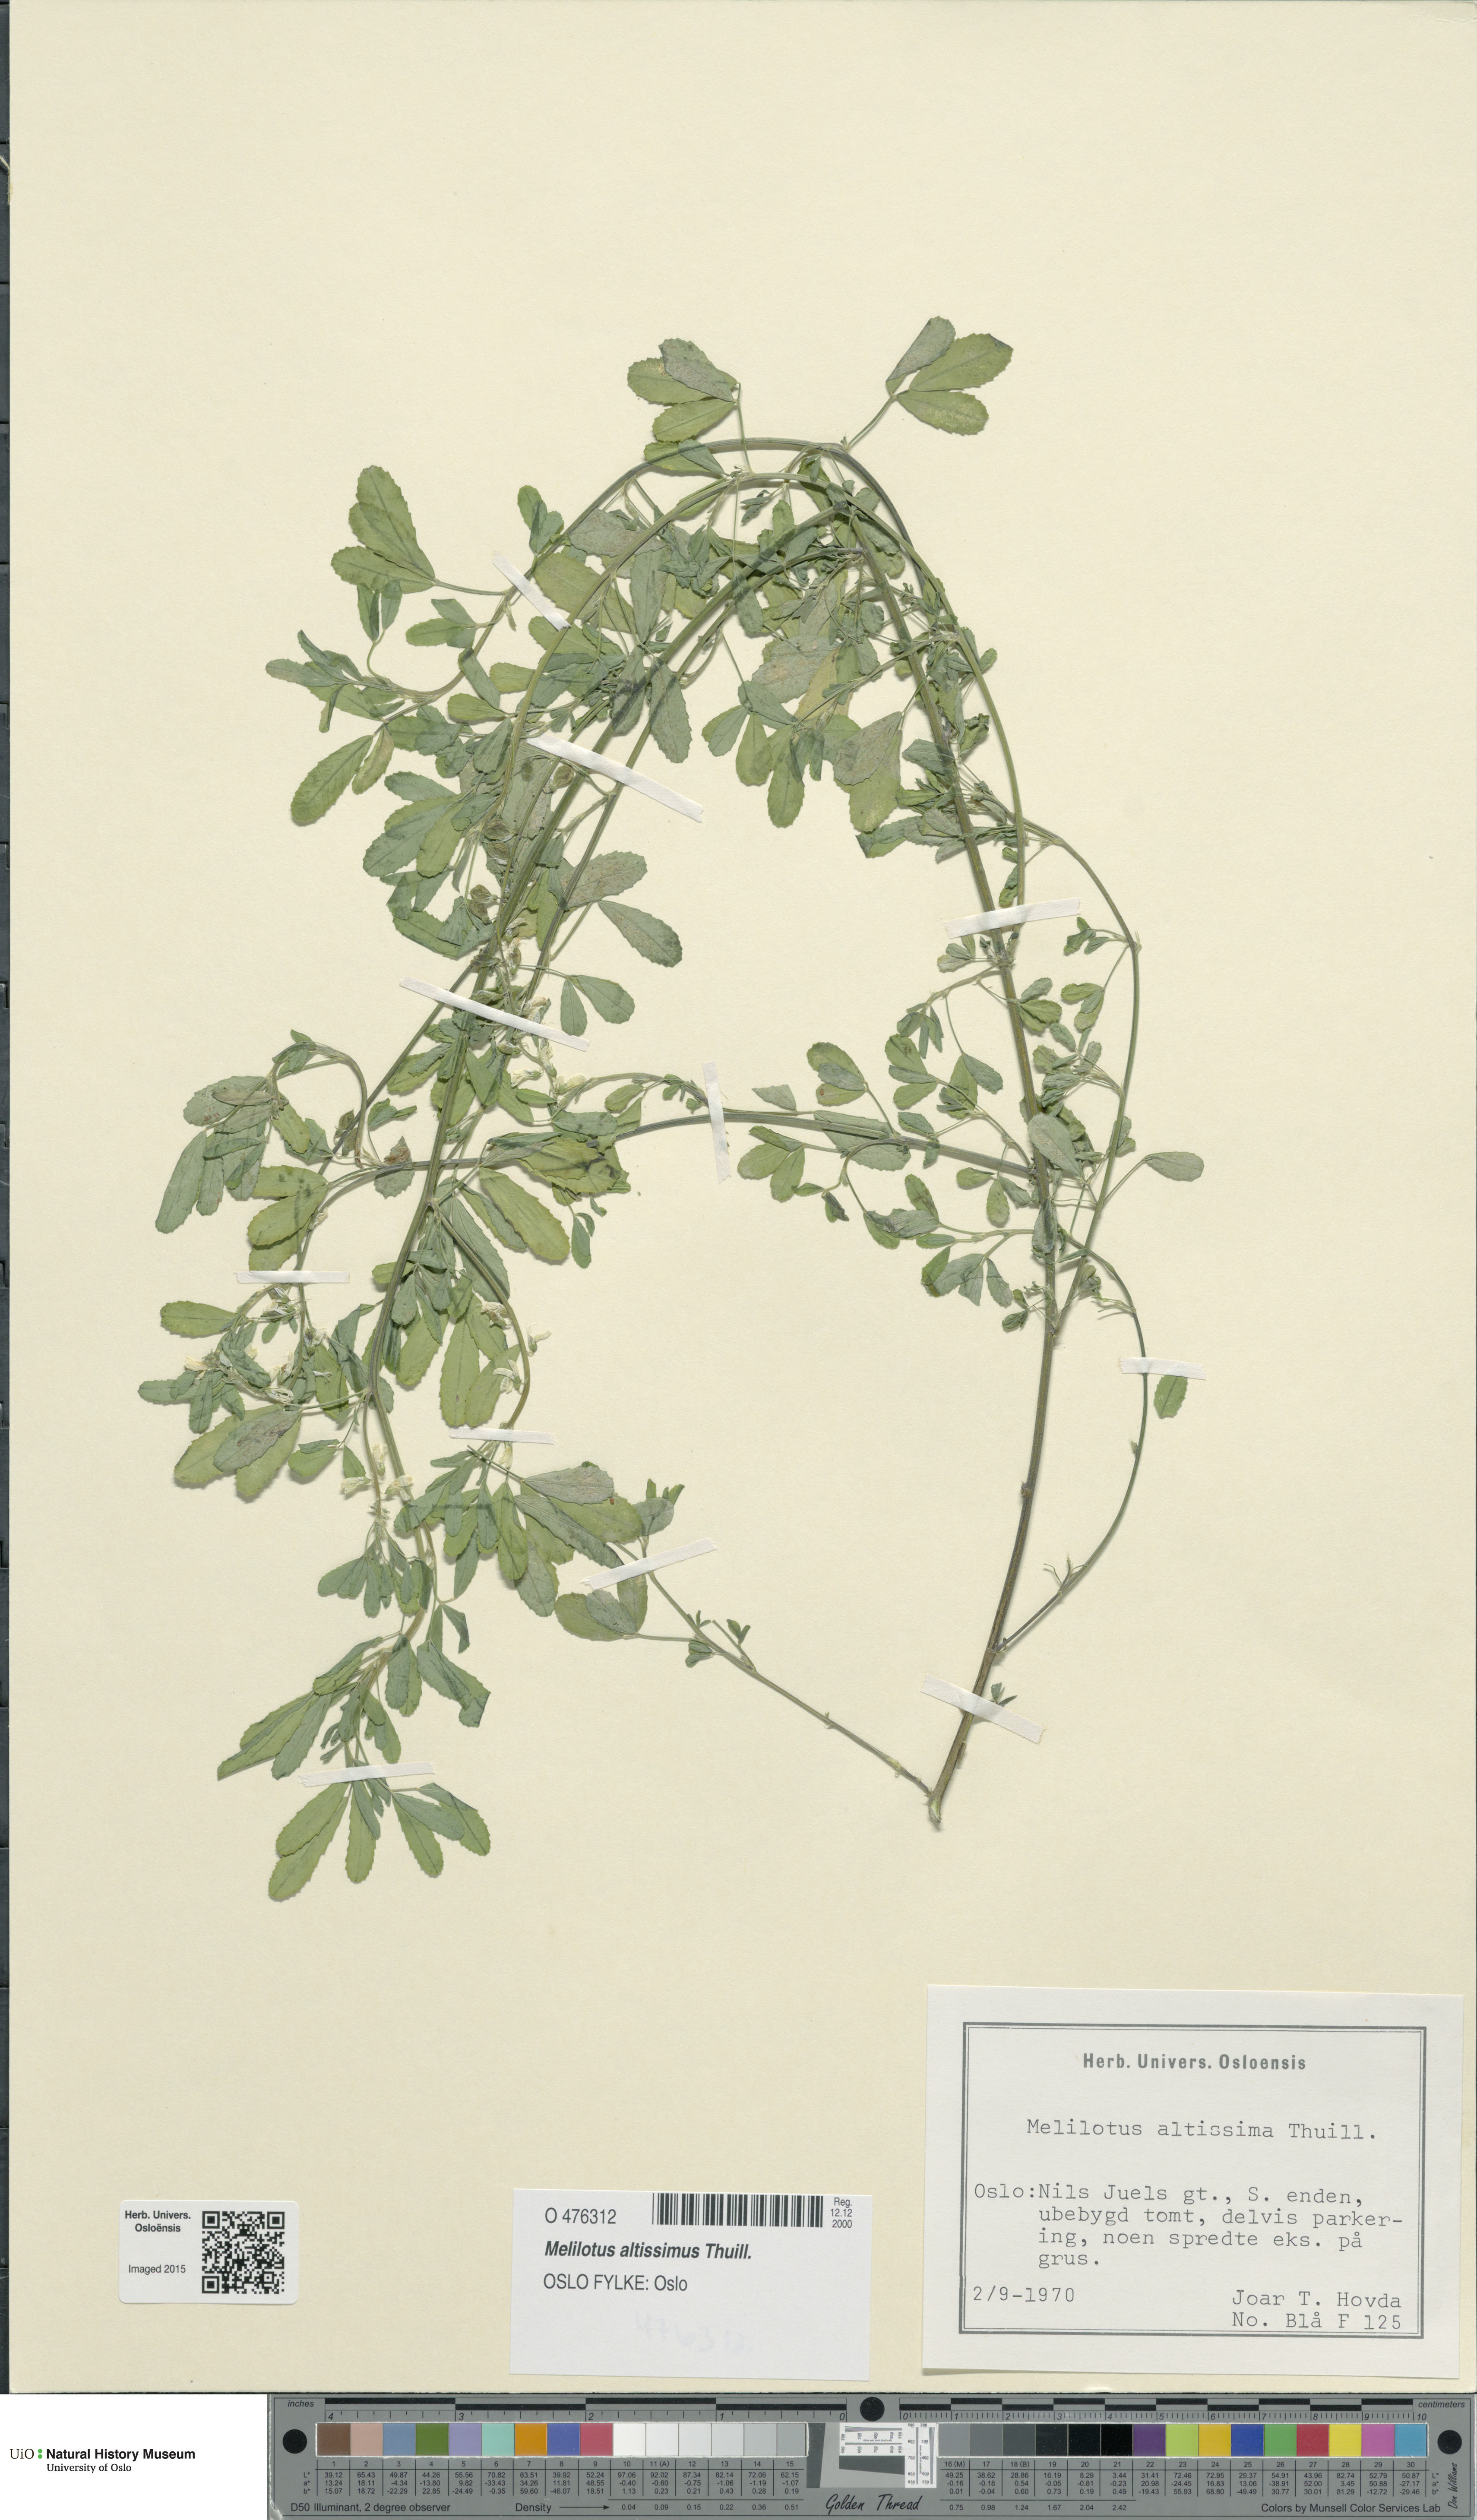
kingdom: Plantae
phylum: Tracheophyta
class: Magnoliopsida
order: Fabales
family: Fabaceae
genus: Melilotus
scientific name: Melilotus altissimus
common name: Tall melilot
